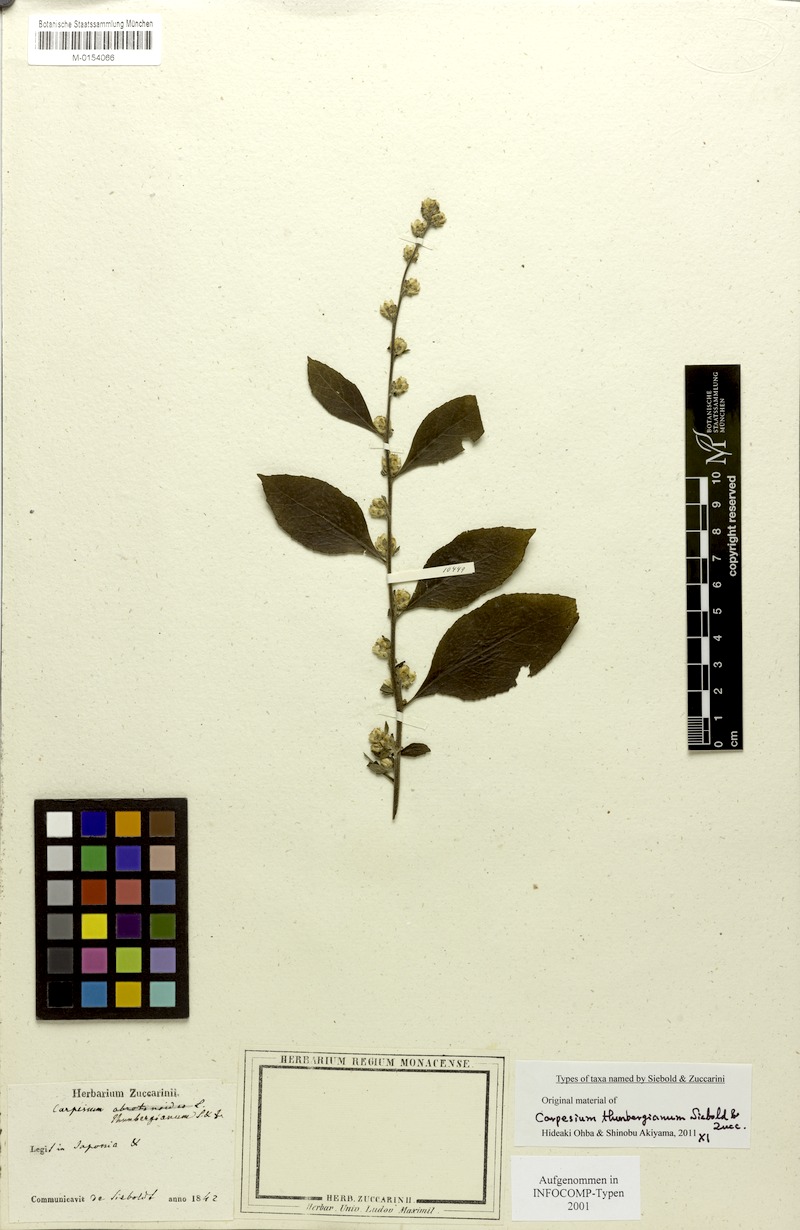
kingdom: Plantae
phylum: Tracheophyta
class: Magnoliopsida
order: Asterales
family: Asteraceae
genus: Carpesium
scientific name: Carpesium abrotanoides
